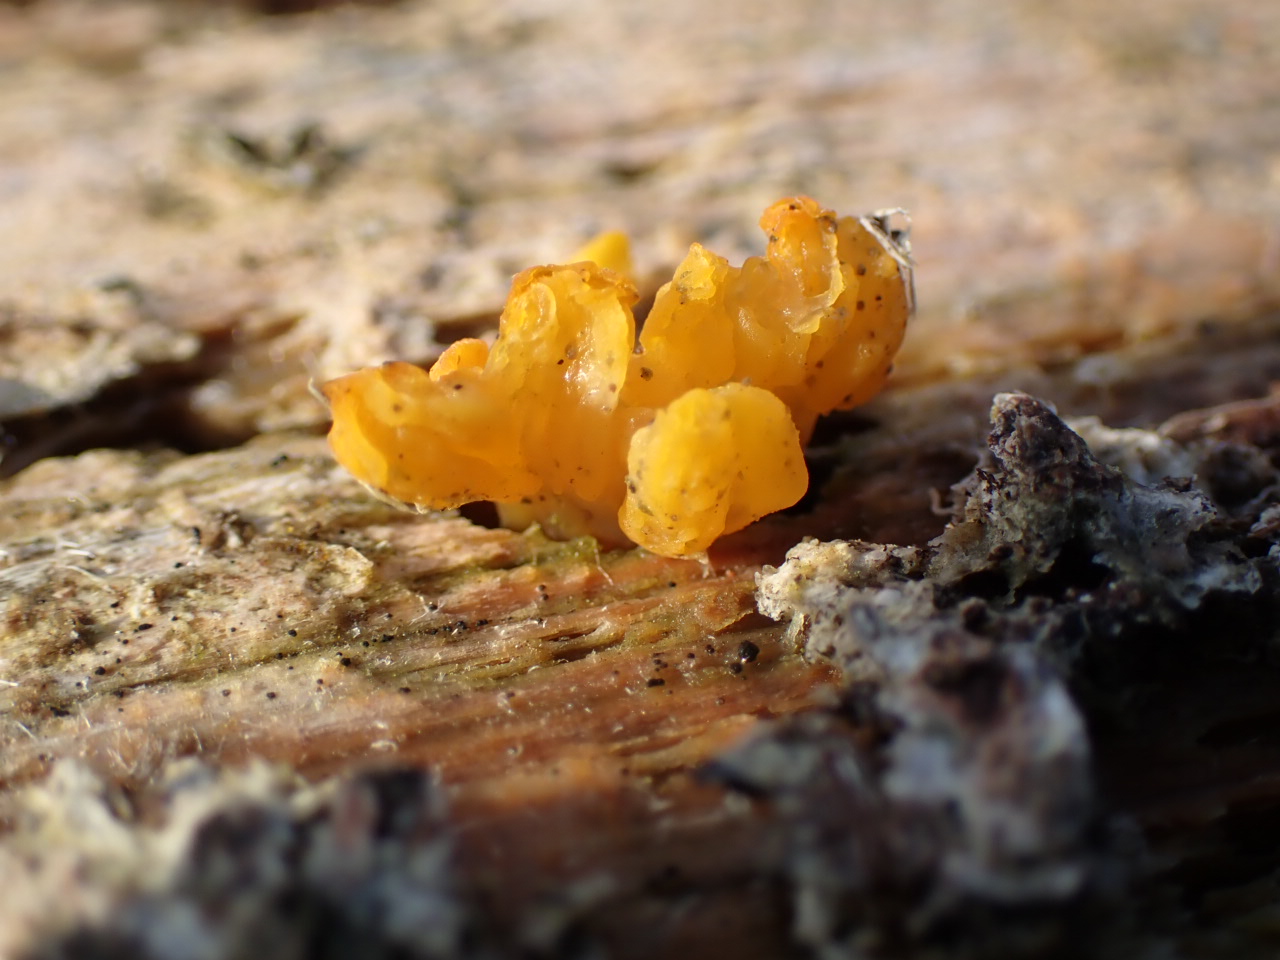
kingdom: Fungi
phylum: Basidiomycota
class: Tremellomycetes
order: Tremellales
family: Tremellaceae
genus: Tremella
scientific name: Tremella mesenterica
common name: gul bævresvamp
